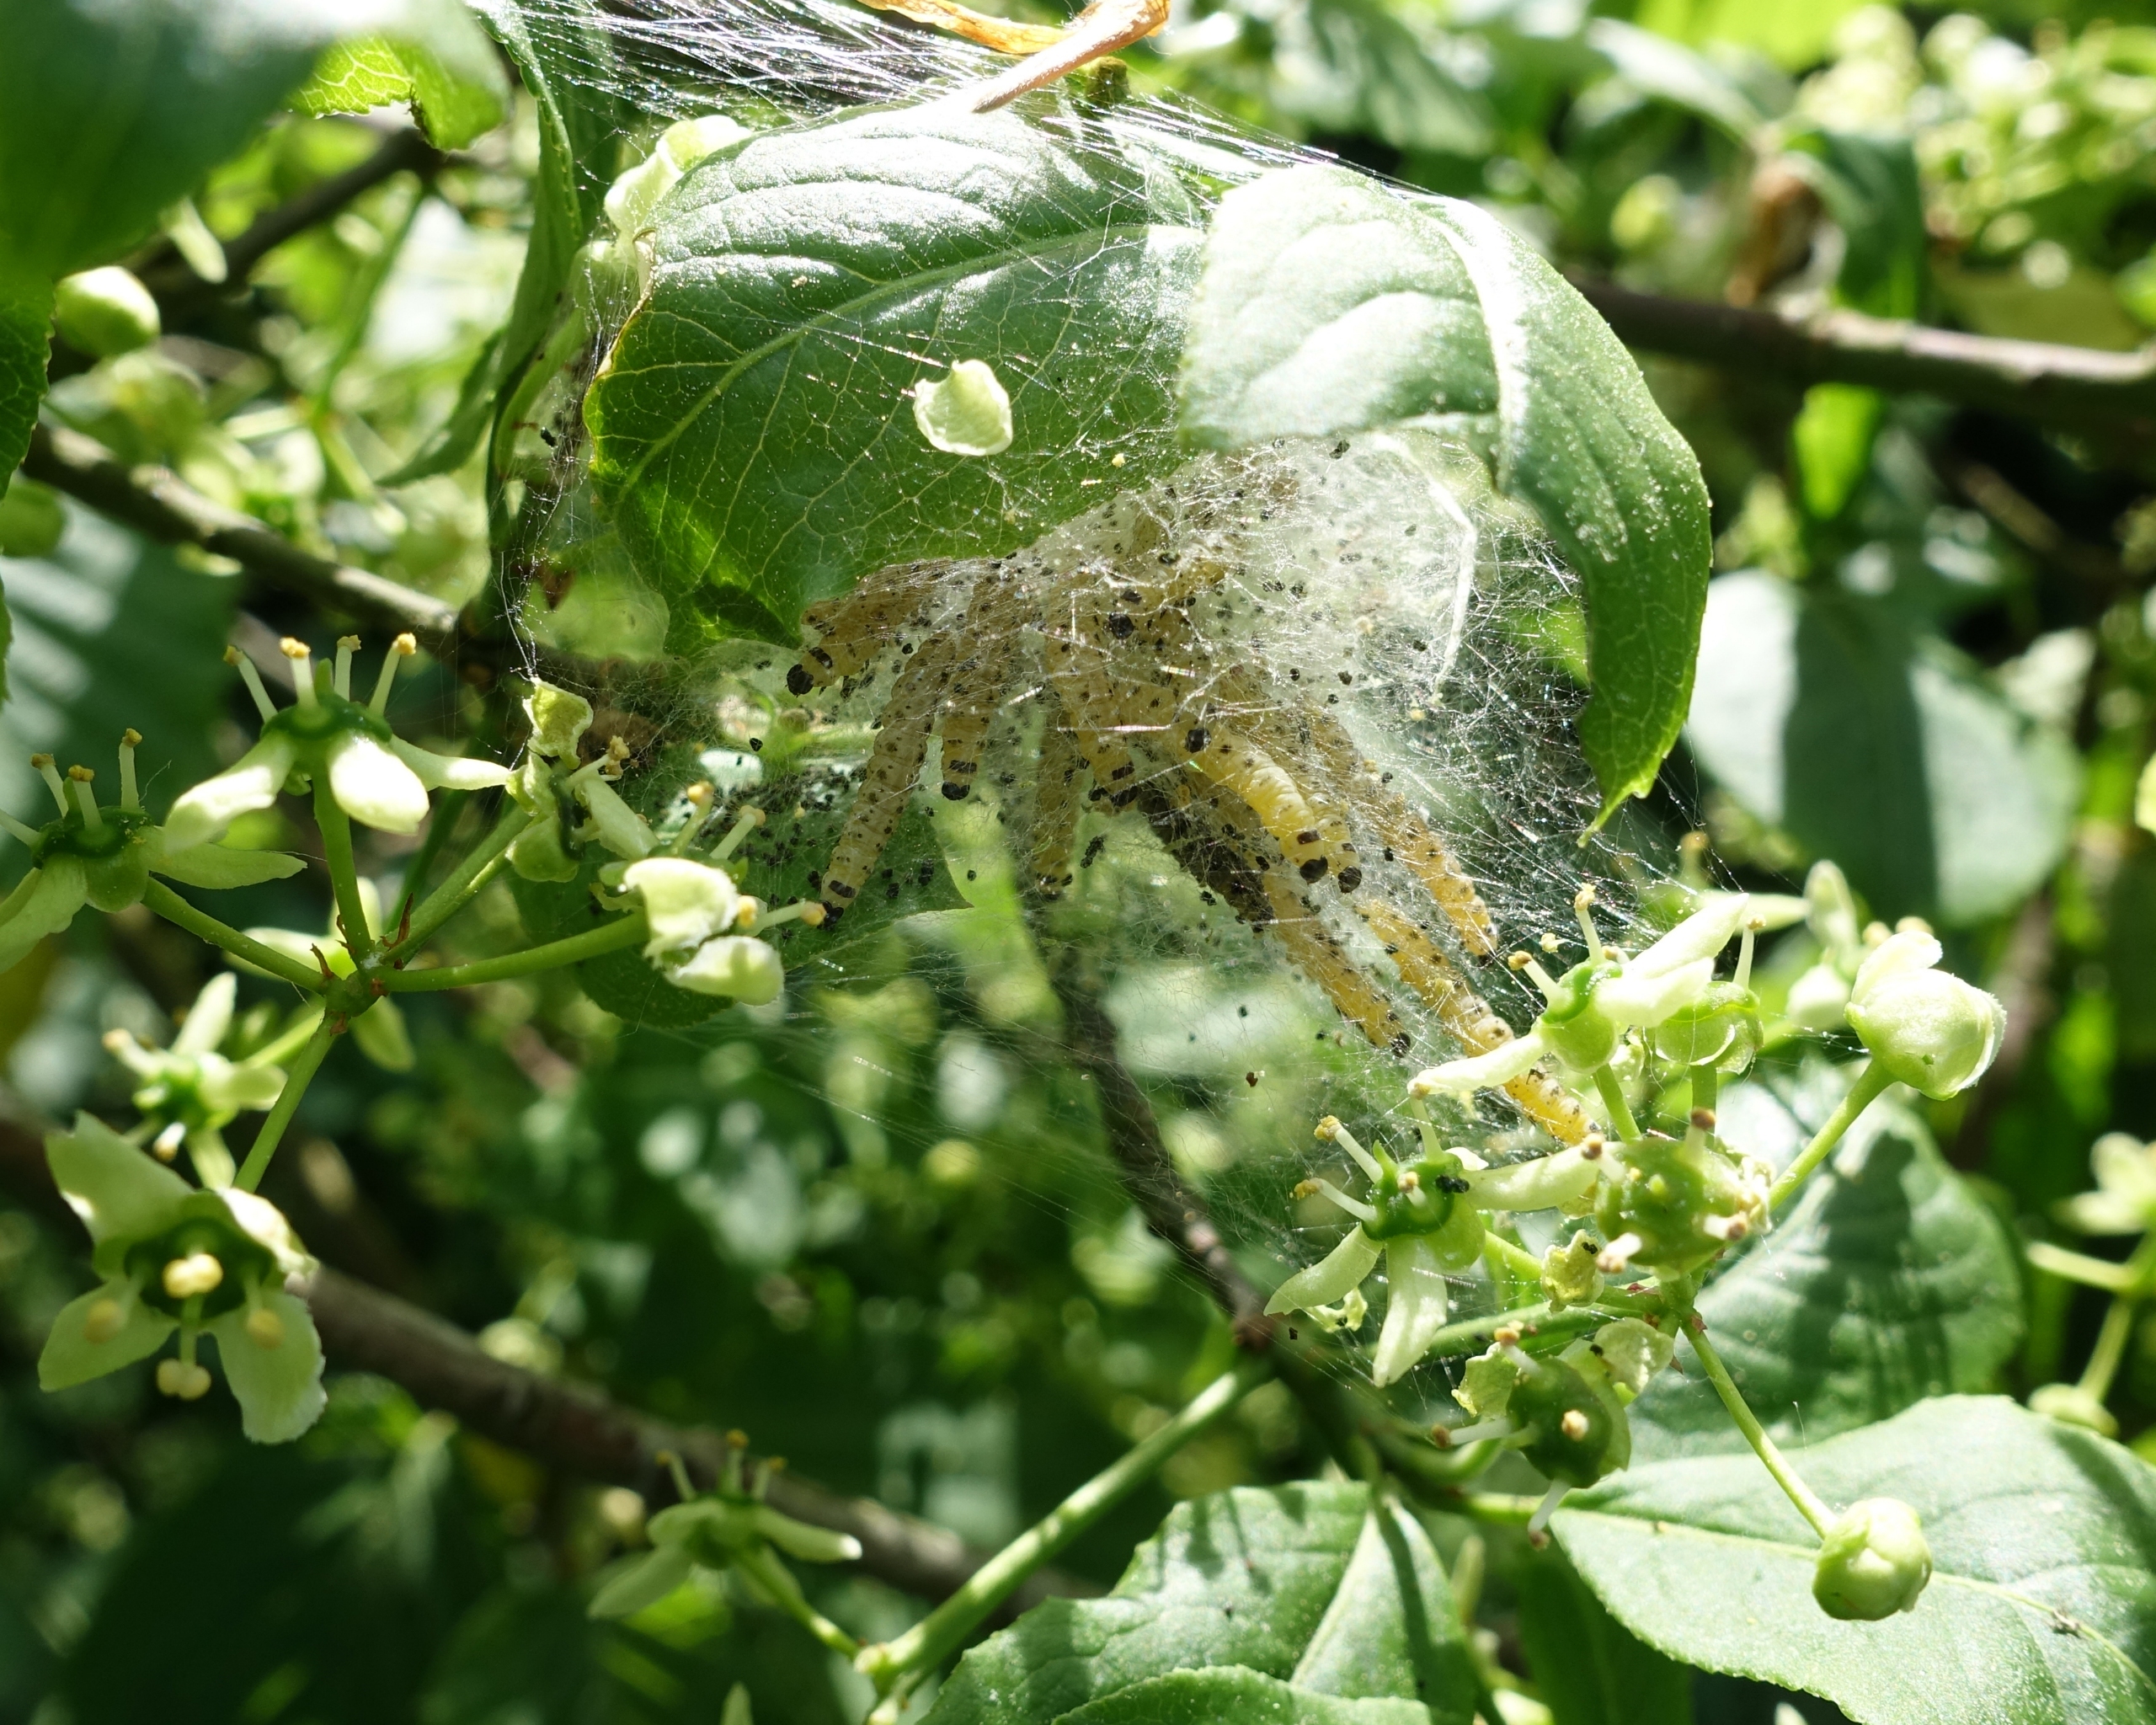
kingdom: Animalia
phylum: Arthropoda
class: Insecta
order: Lepidoptera
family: Yponomeutidae
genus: Yponomeuta
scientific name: Yponomeuta cagnagellus
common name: Benvedspindemøl
